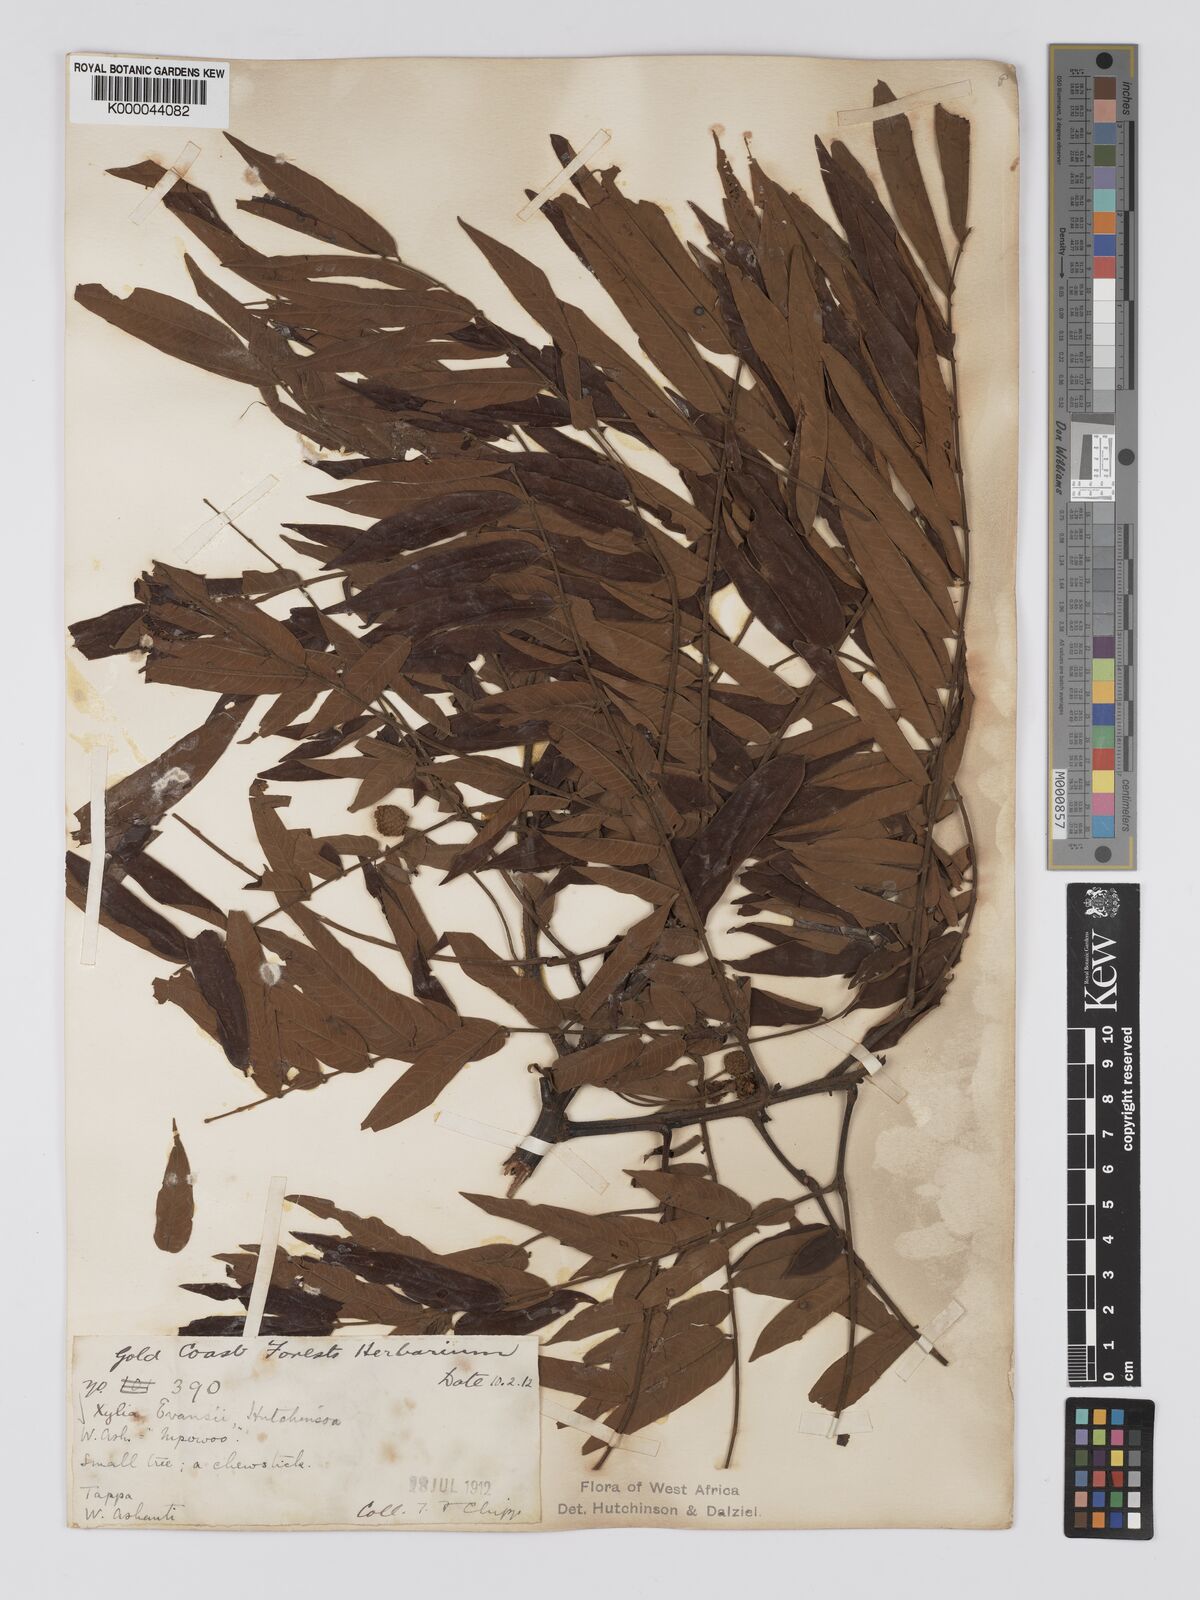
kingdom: Plantae
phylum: Tracheophyta
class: Magnoliopsida
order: Fabales
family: Fabaceae
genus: Xylia
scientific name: Xylia evansii
